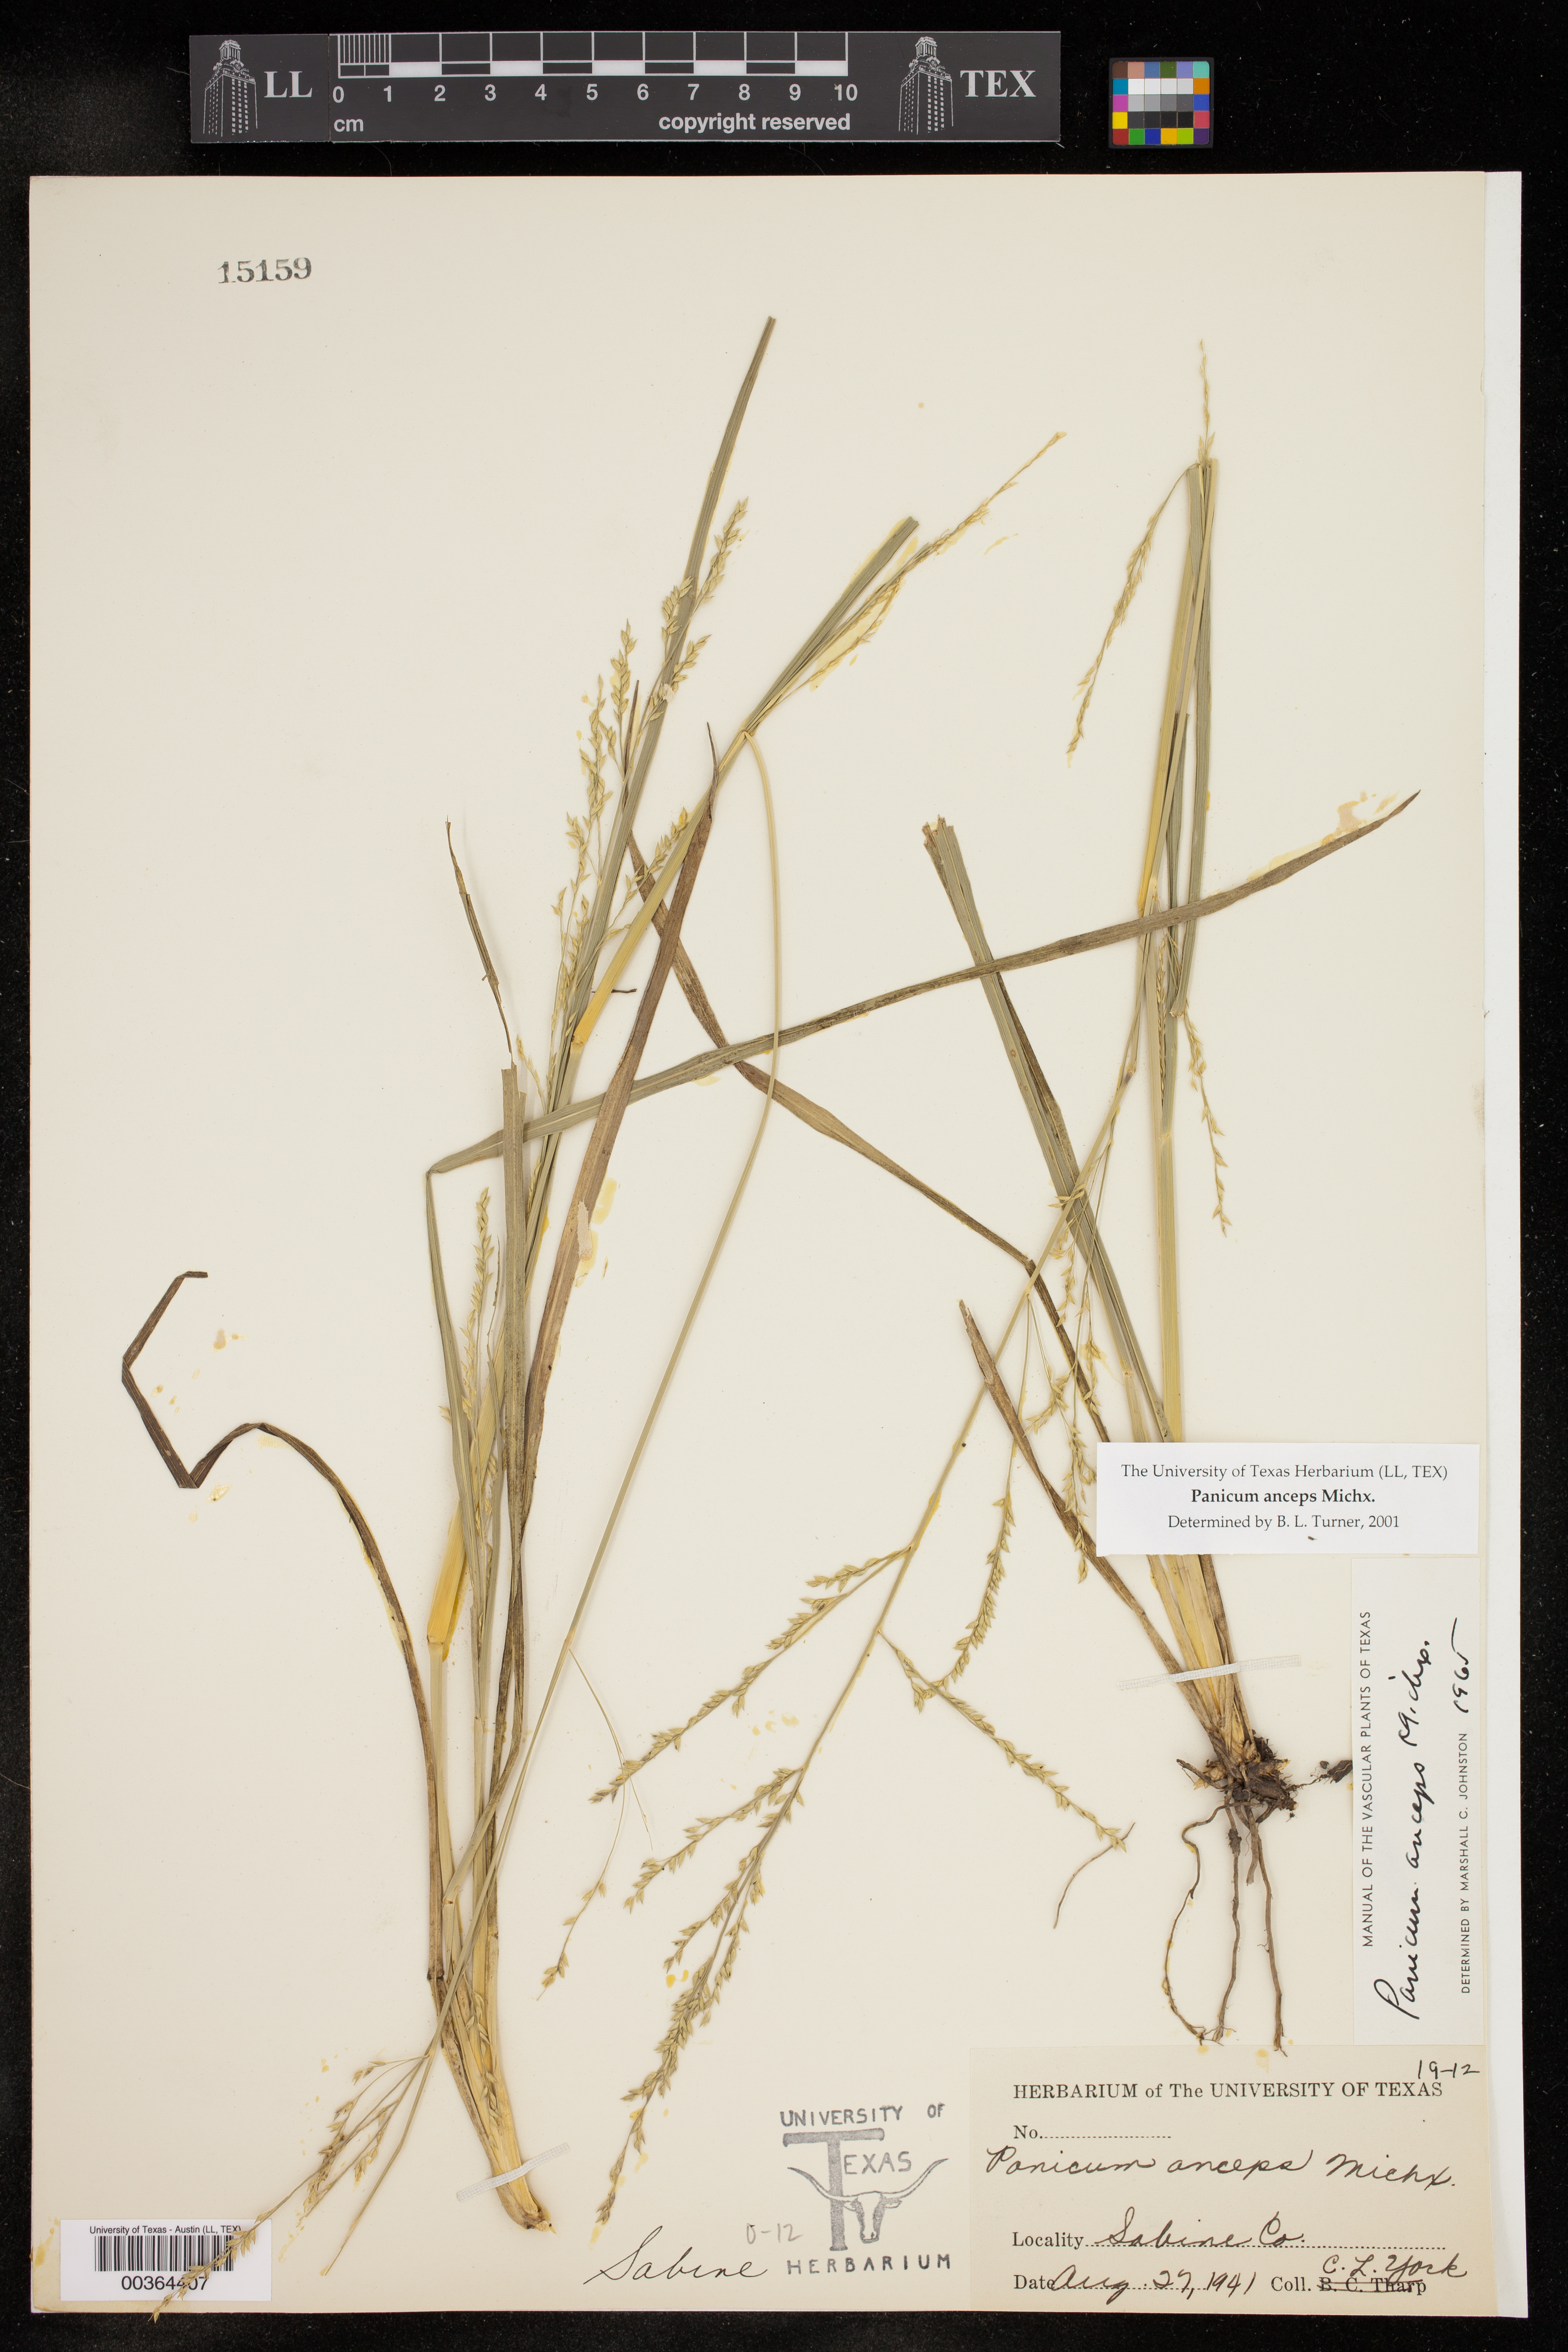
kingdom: Plantae
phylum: Tracheophyta
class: Liliopsida
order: Poales
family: Poaceae
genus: Coleataenia
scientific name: Coleataenia anceps
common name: Beaked panic grass
